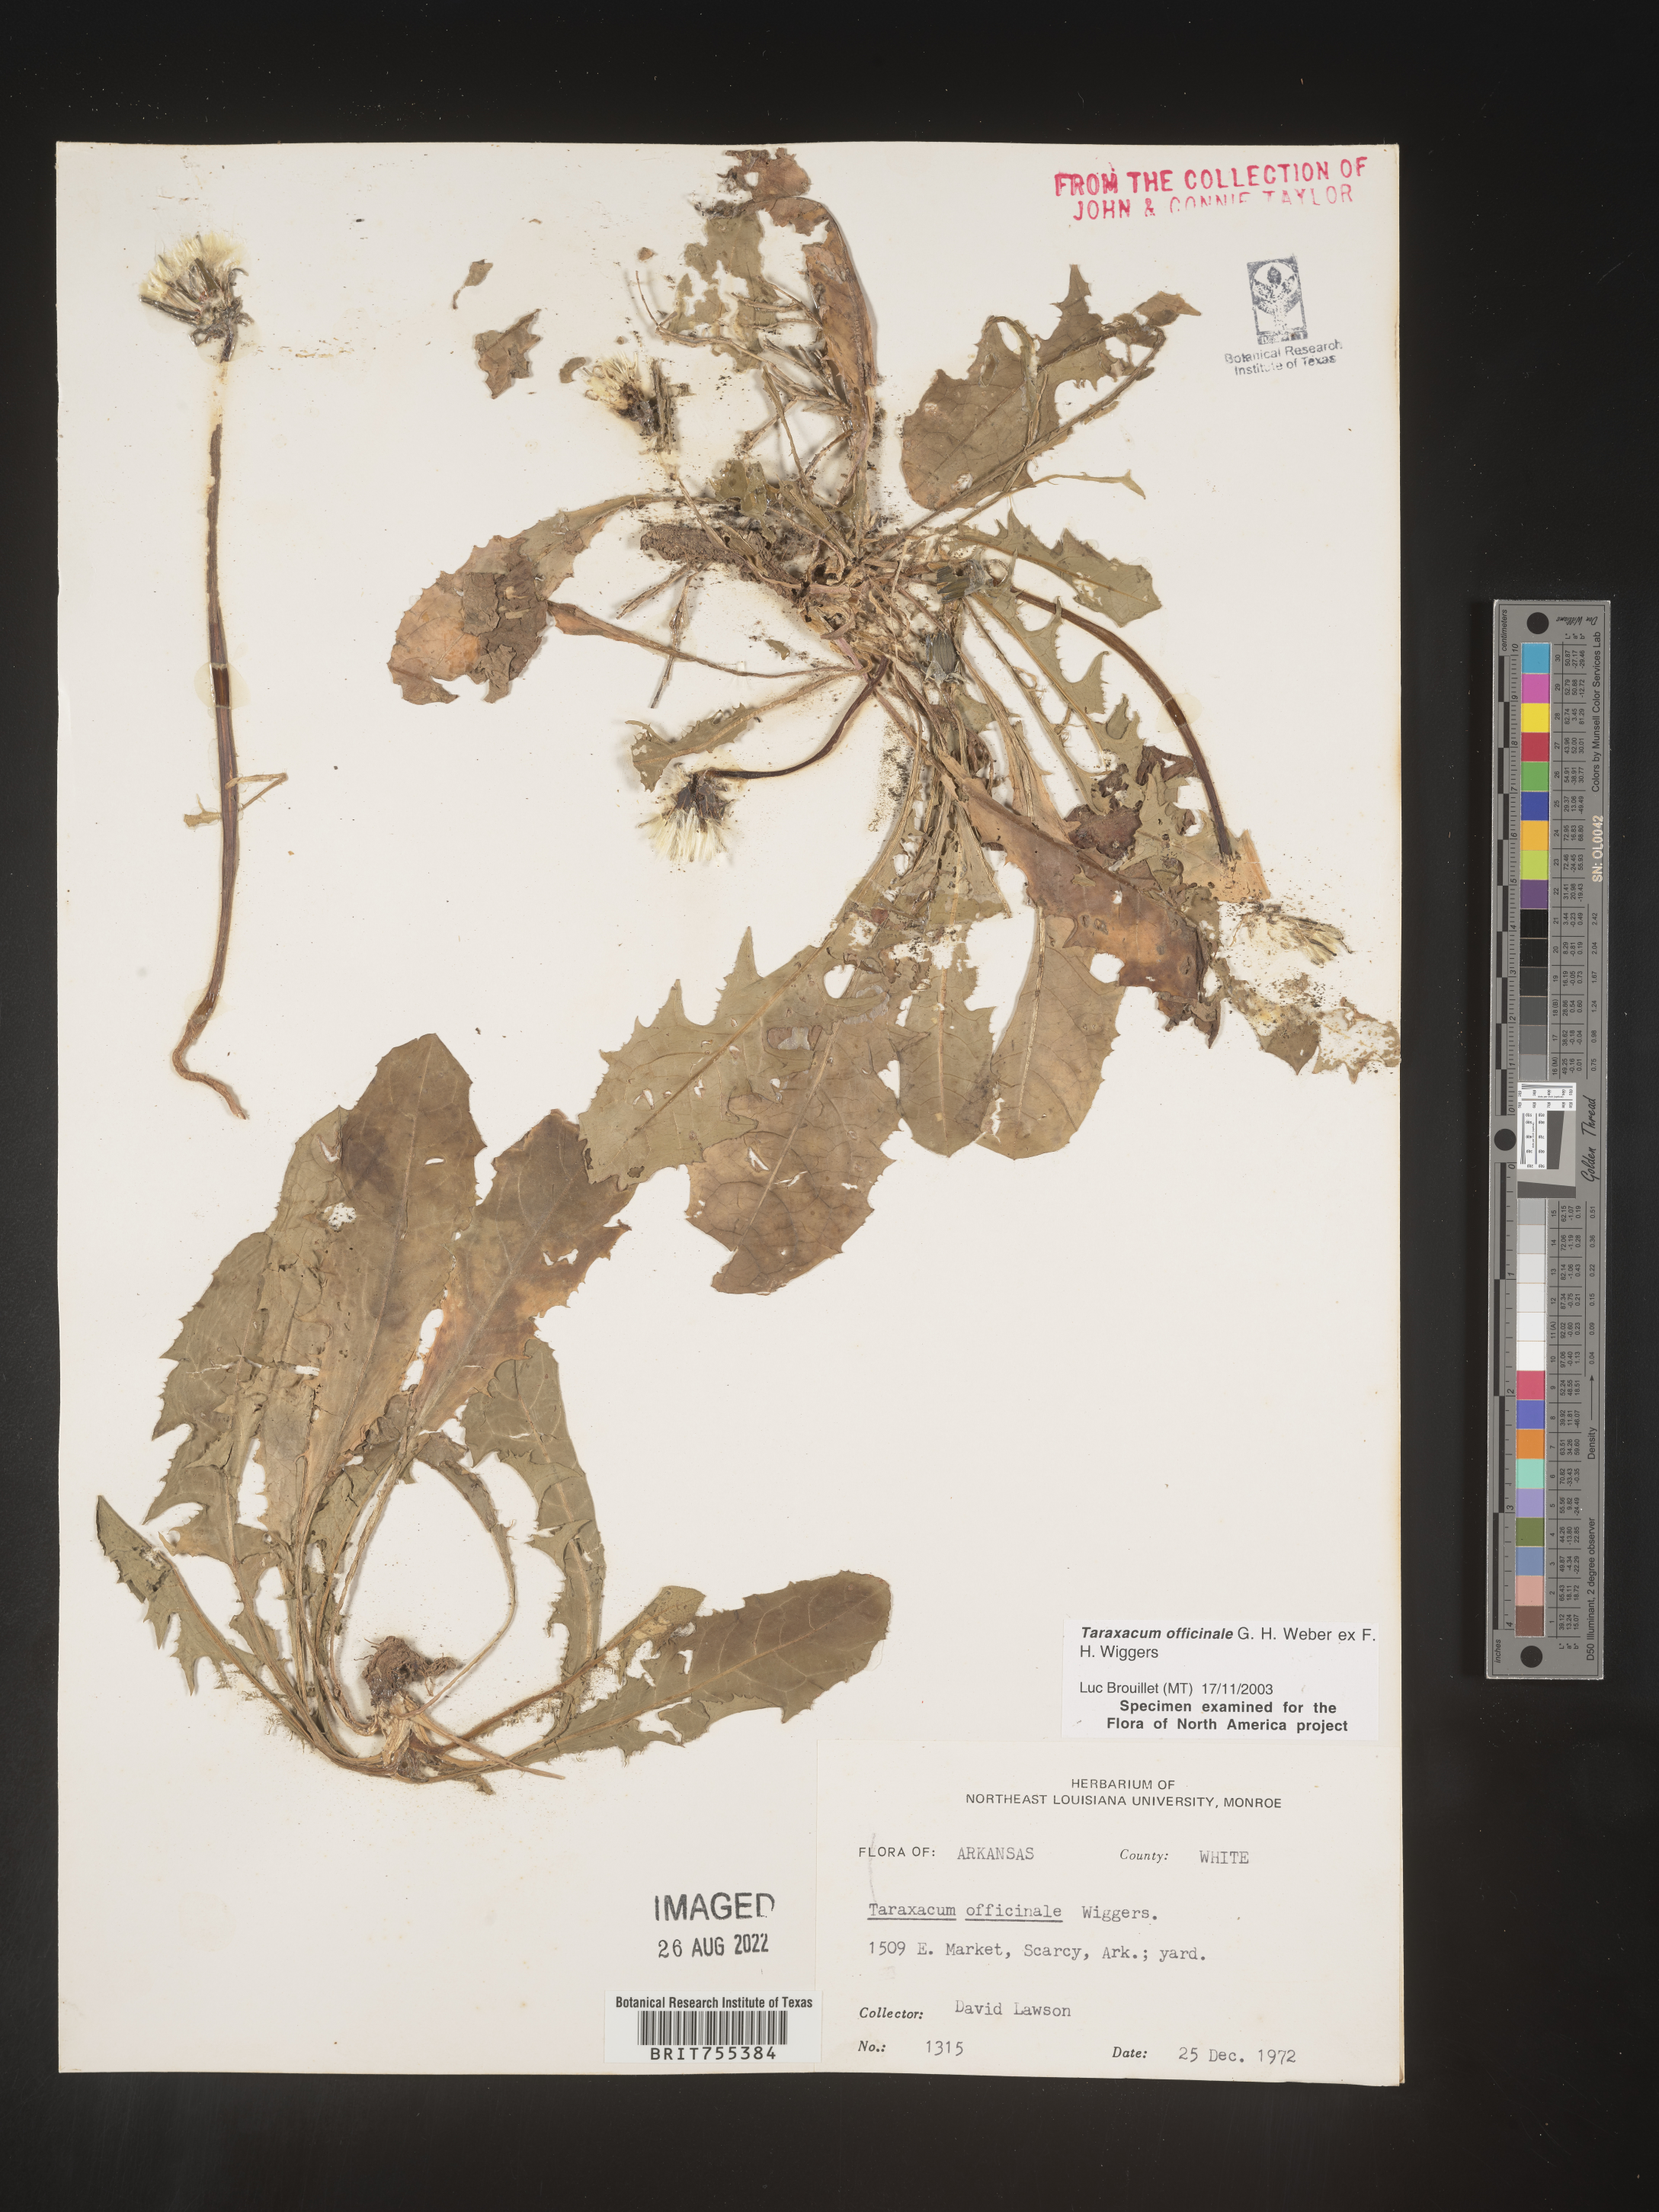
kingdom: Plantae
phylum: Tracheophyta
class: Magnoliopsida
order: Asterales
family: Asteraceae
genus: Taraxacum
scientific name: Taraxacum officinale
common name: Common dandelion
